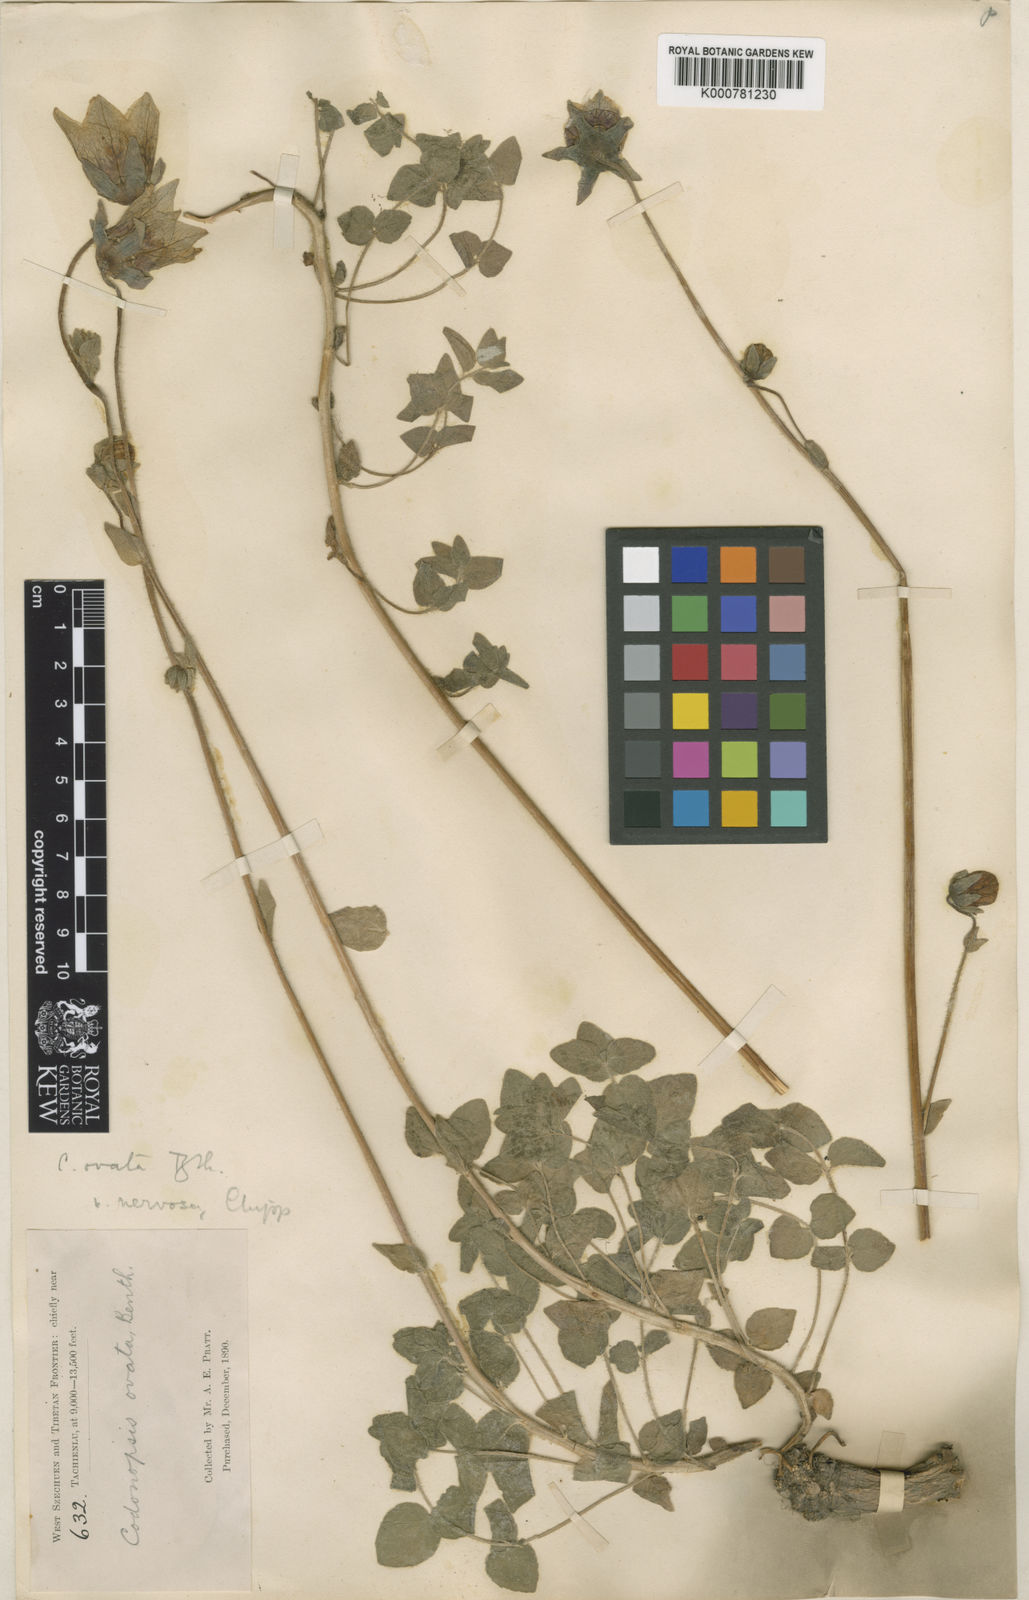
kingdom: Plantae
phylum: Tracheophyta
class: Magnoliopsida
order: Asterales
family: Campanulaceae
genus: Codonopsis
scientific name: Codonopsis foetens
